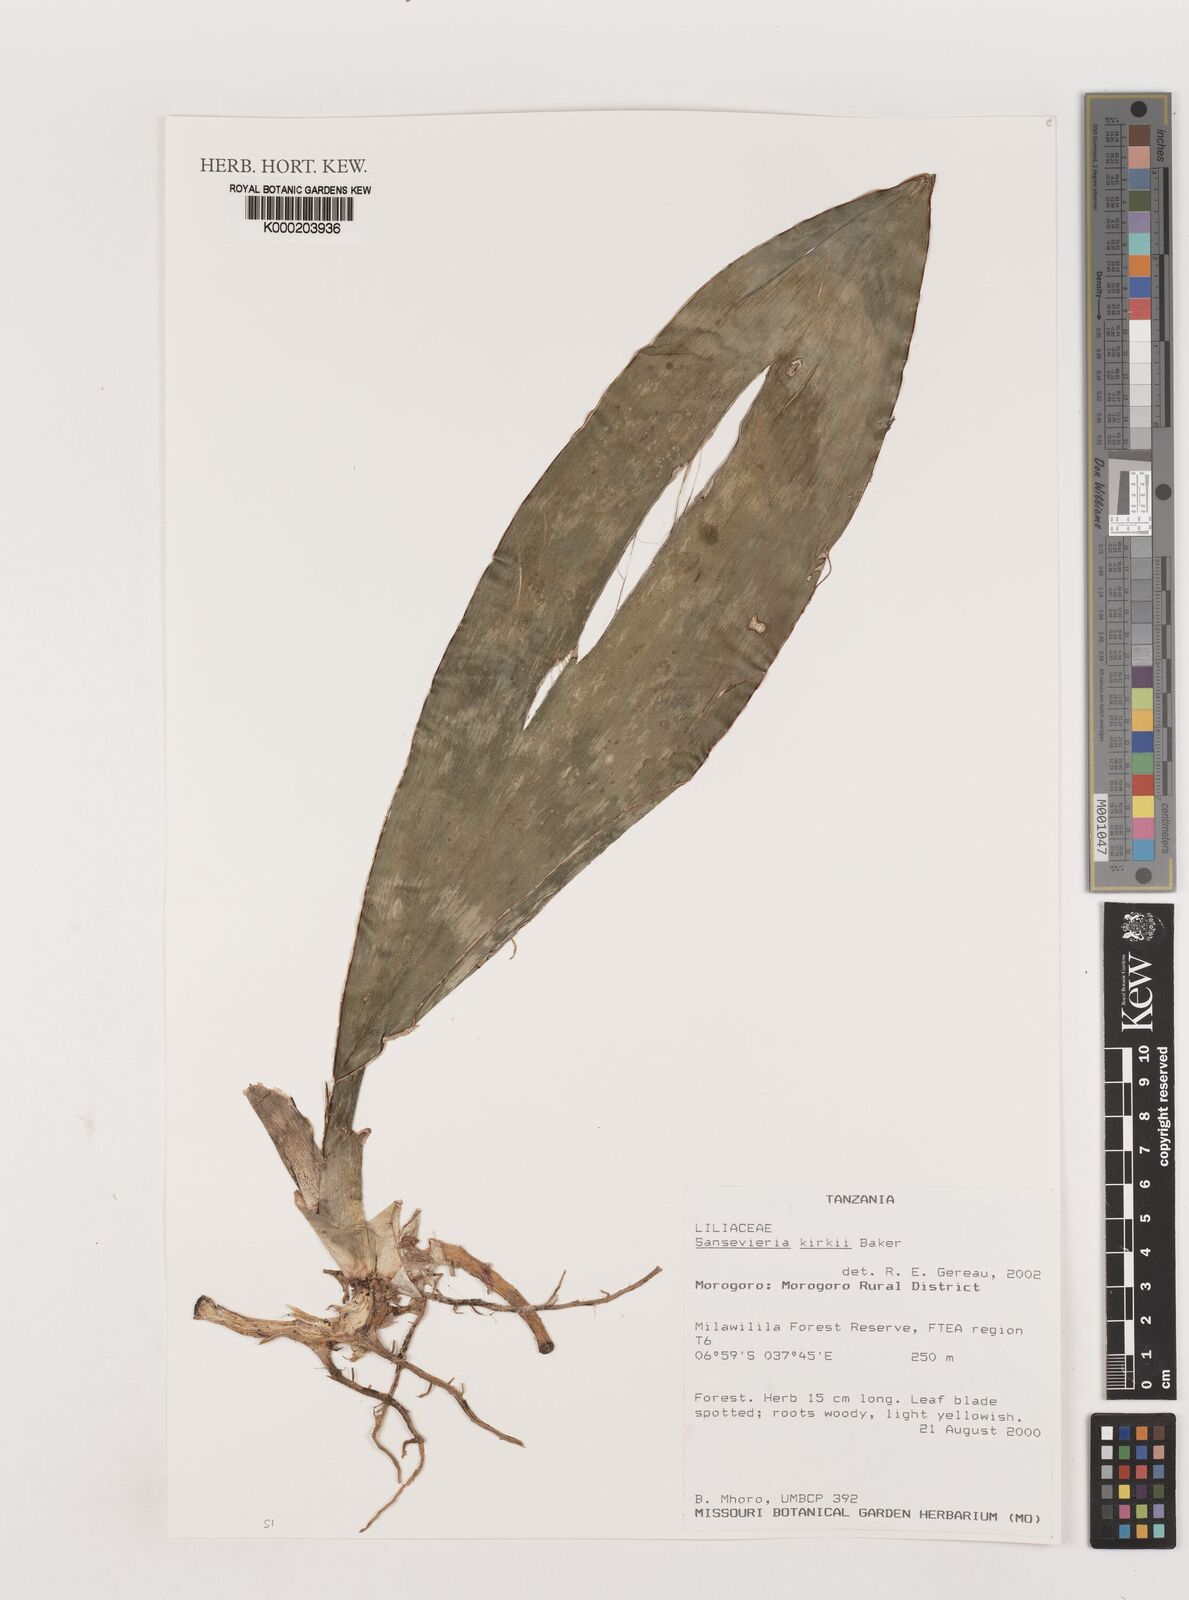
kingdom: Plantae
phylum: Tracheophyta
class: Liliopsida
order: Asparagales
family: Asparagaceae
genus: Dracaena
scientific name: Dracaena pethera
